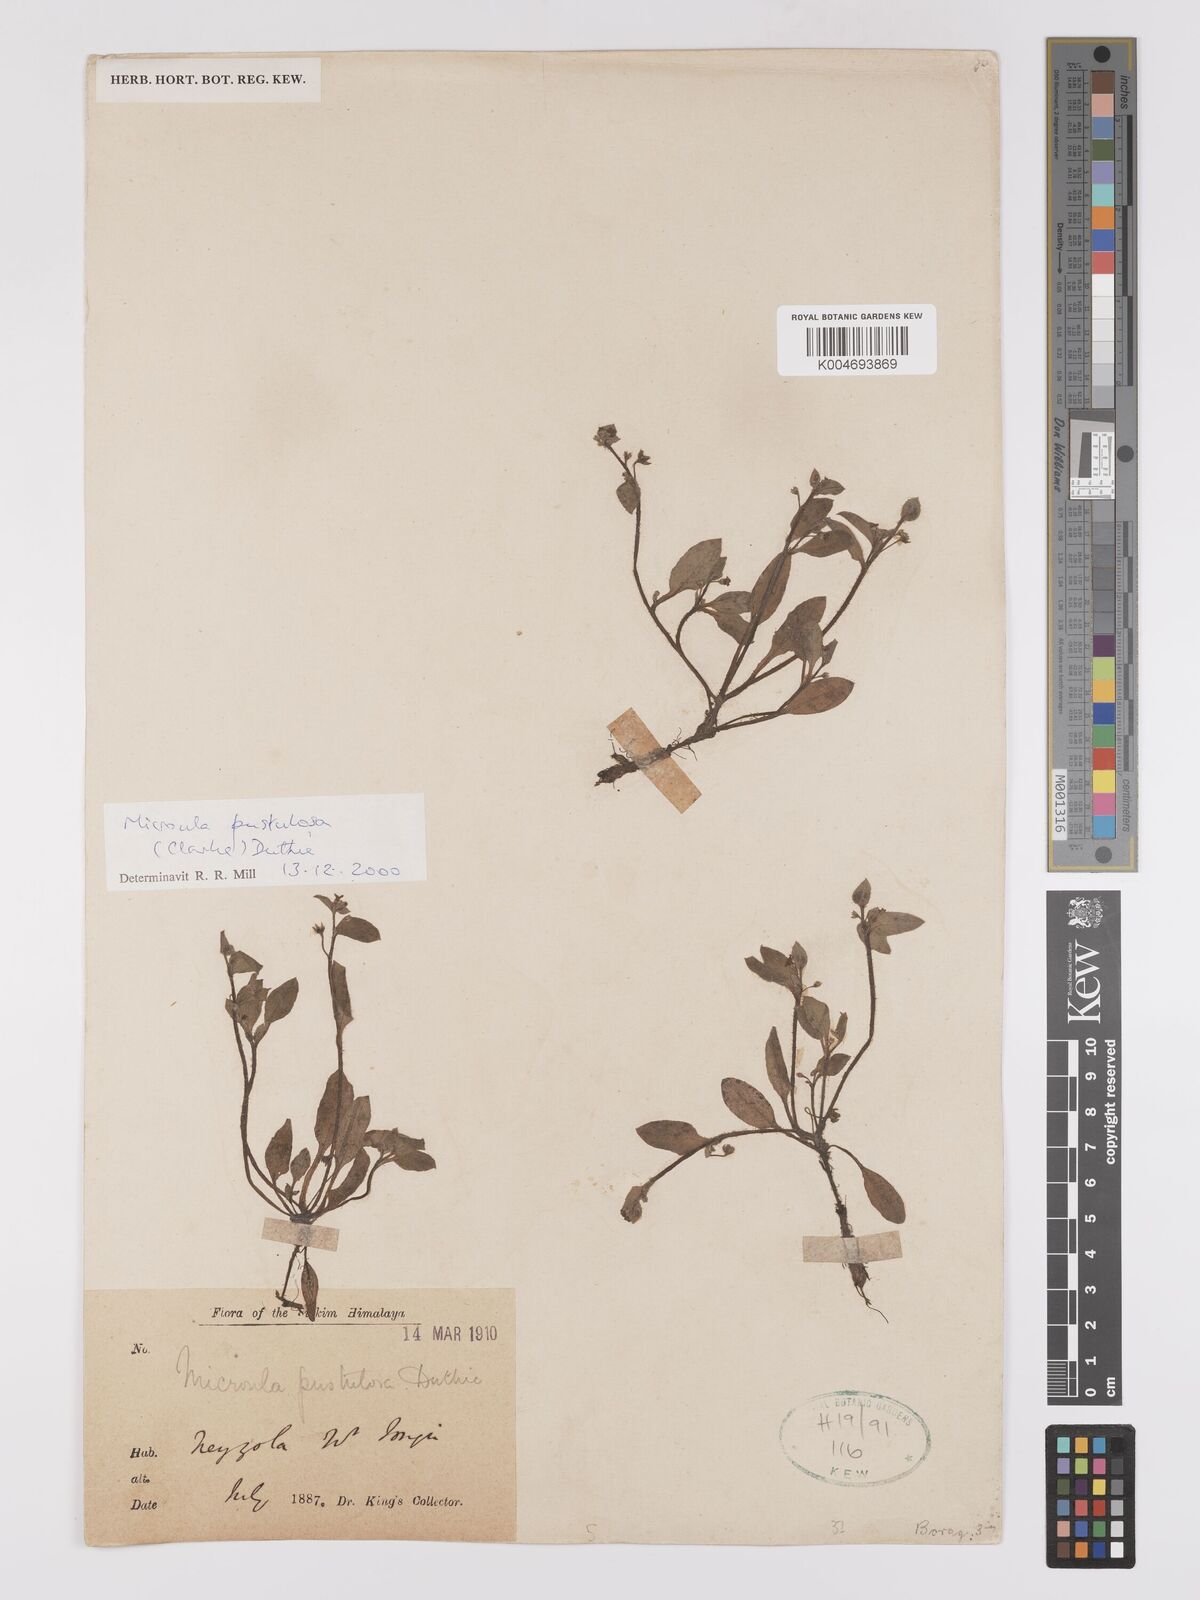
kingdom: Plantae
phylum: Tracheophyta
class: Magnoliopsida
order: Boraginales
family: Boraginaceae
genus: Microula
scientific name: Microula pustulosa
